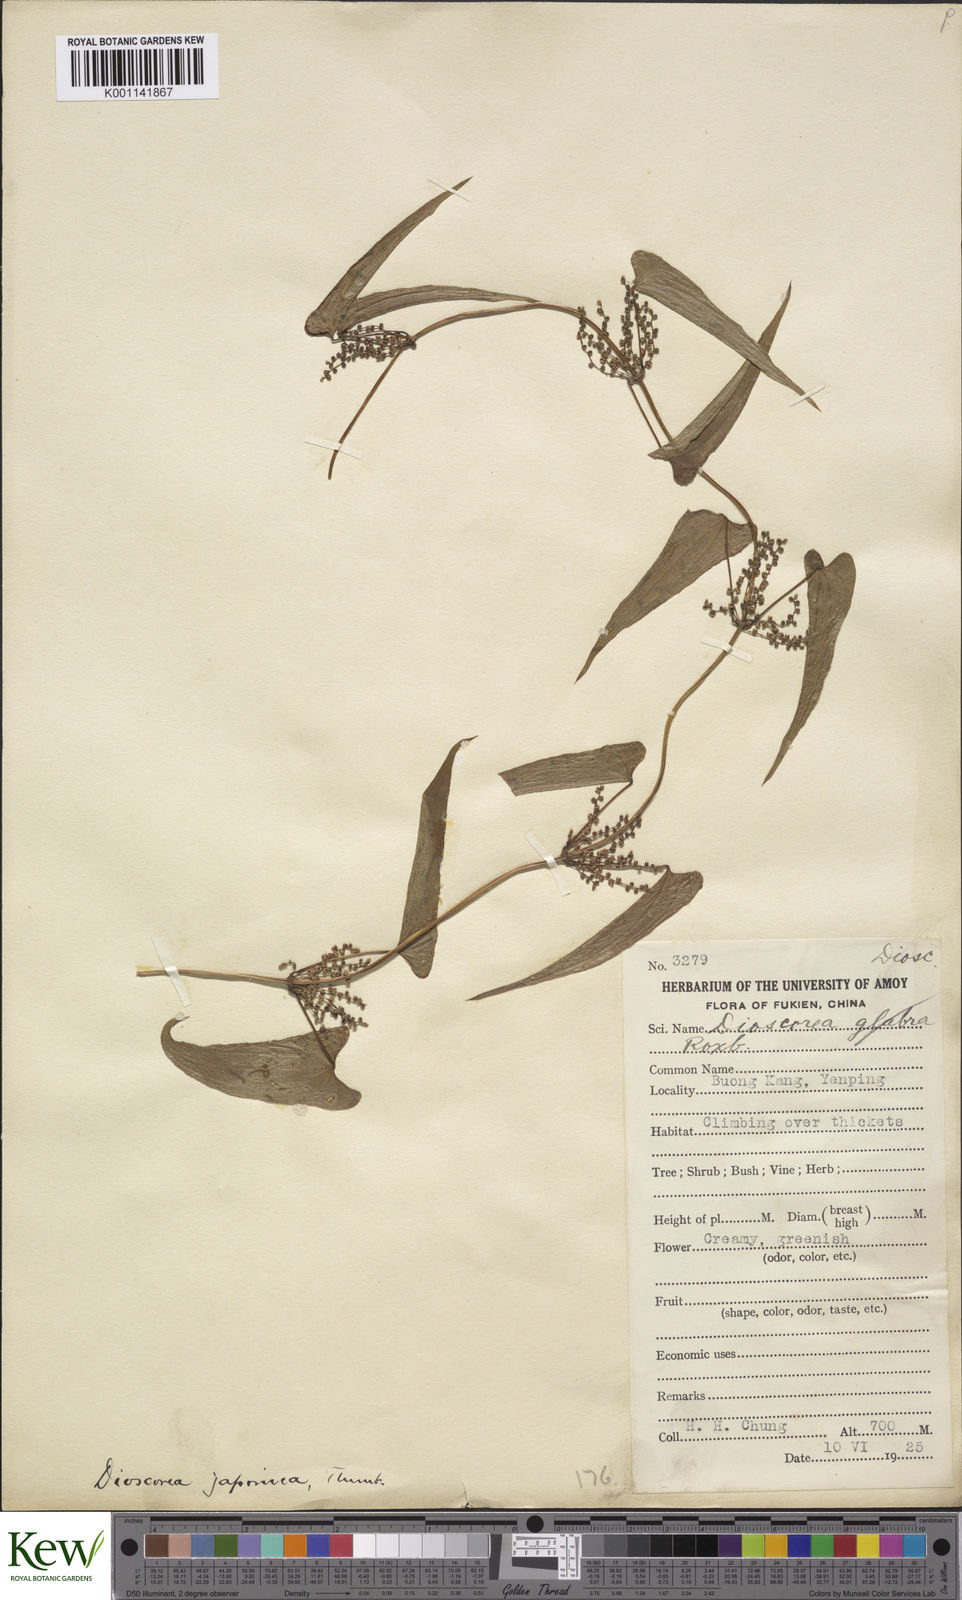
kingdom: Plantae
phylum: Tracheophyta
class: Liliopsida
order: Dioscoreales
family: Dioscoreaceae
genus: Dioscorea
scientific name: Dioscorea japonica
